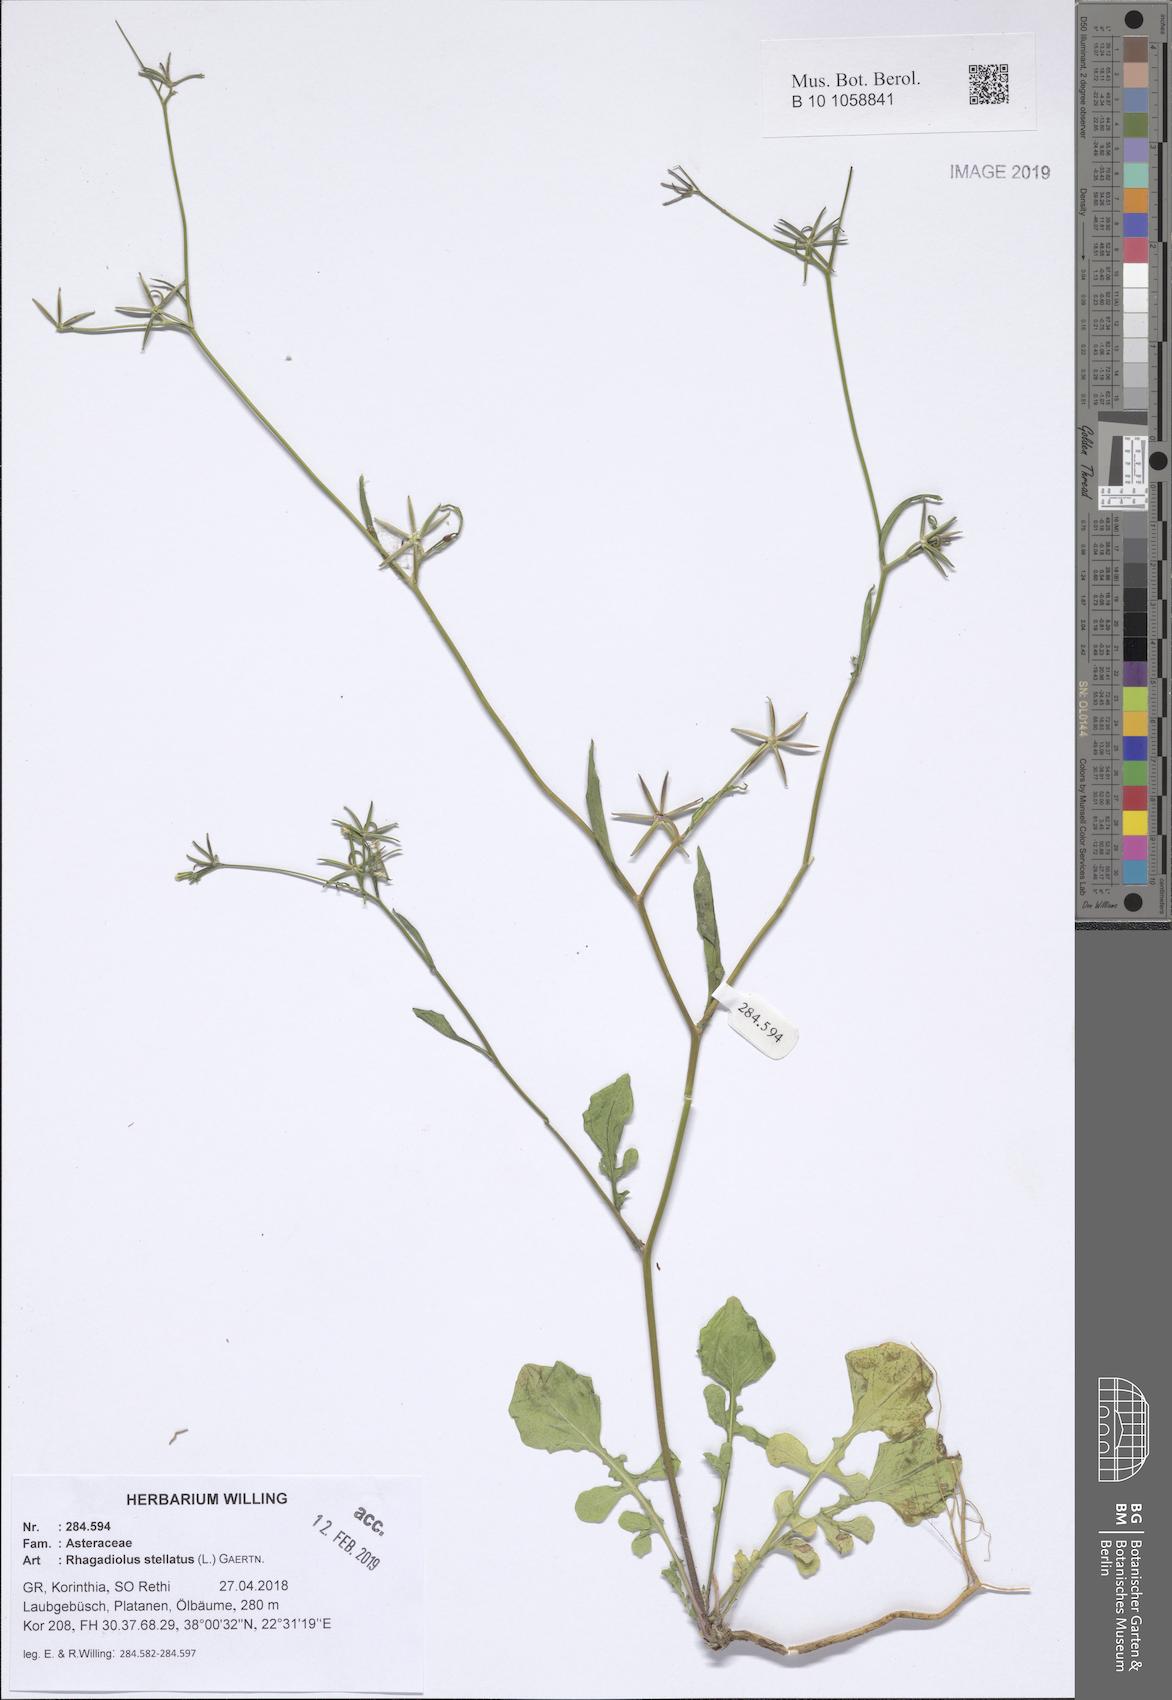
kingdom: Plantae
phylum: Tracheophyta
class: Magnoliopsida
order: Asterales
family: Asteraceae
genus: Rhagadiolus
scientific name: Rhagadiolus stellatus
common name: Star hawkbit
